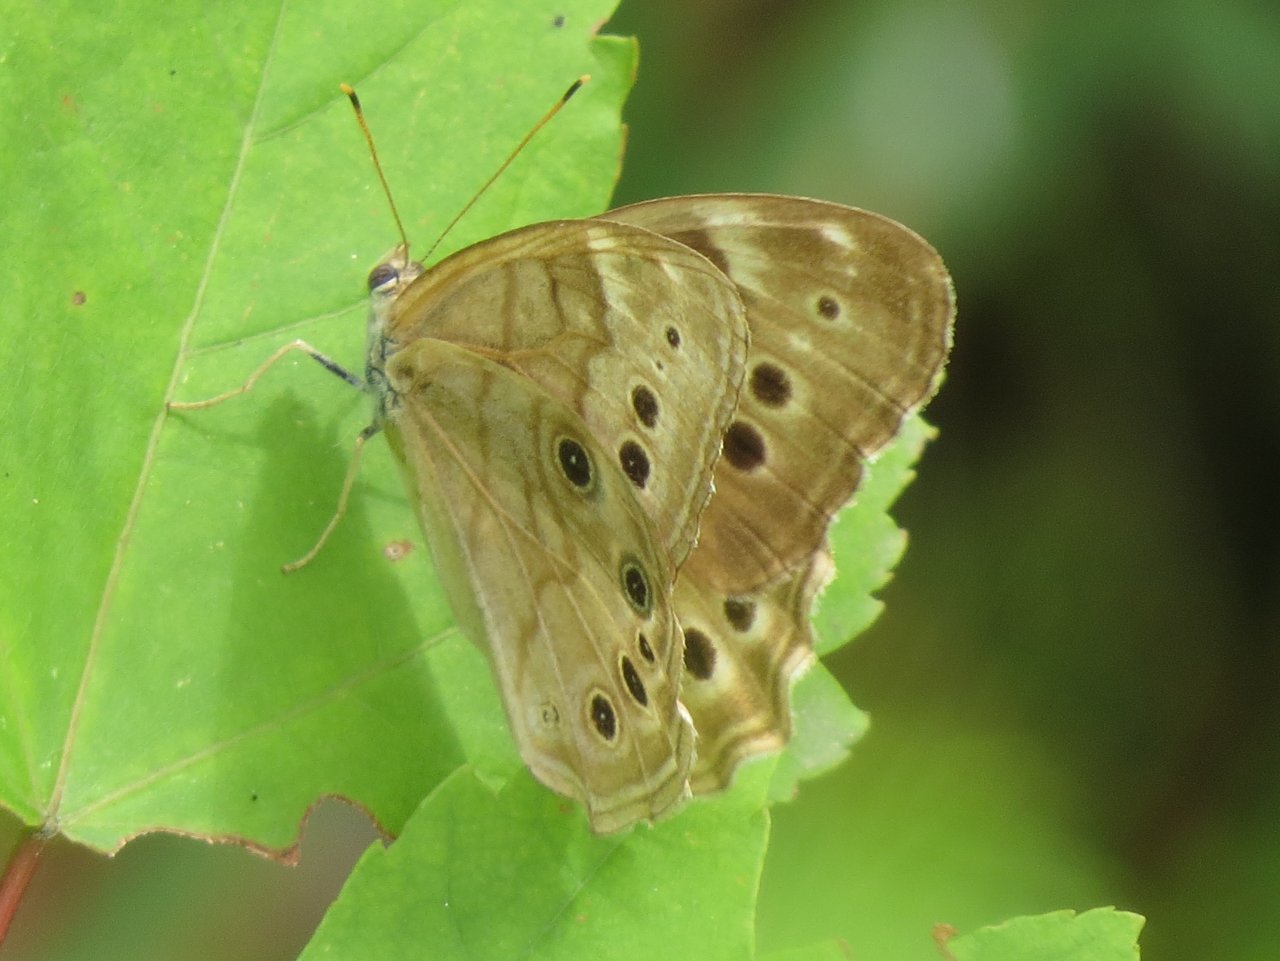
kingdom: Animalia
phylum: Arthropoda
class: Insecta
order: Lepidoptera
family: Nymphalidae
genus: Lethe
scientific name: Lethe anthedon
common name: Northern Pearly-Eye
